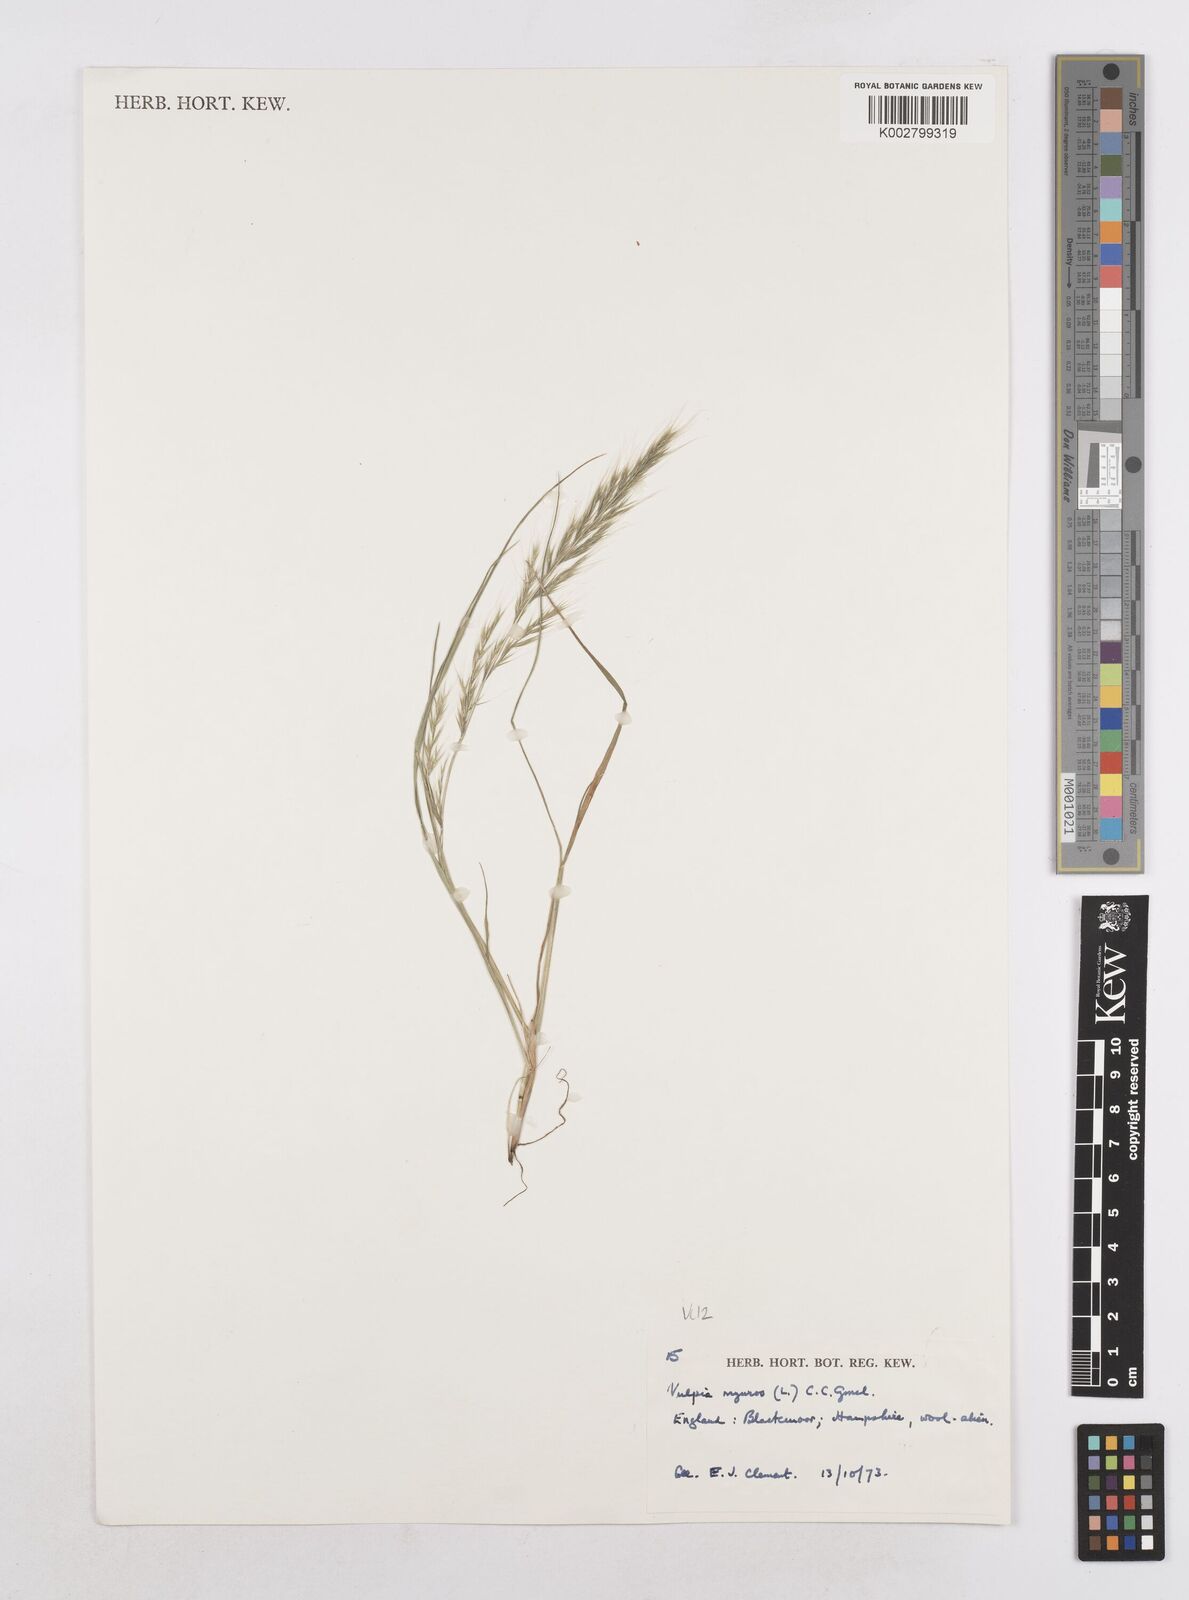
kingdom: Plantae
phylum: Tracheophyta
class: Liliopsida
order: Poales
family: Poaceae
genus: Festuca
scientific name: Festuca myuros
